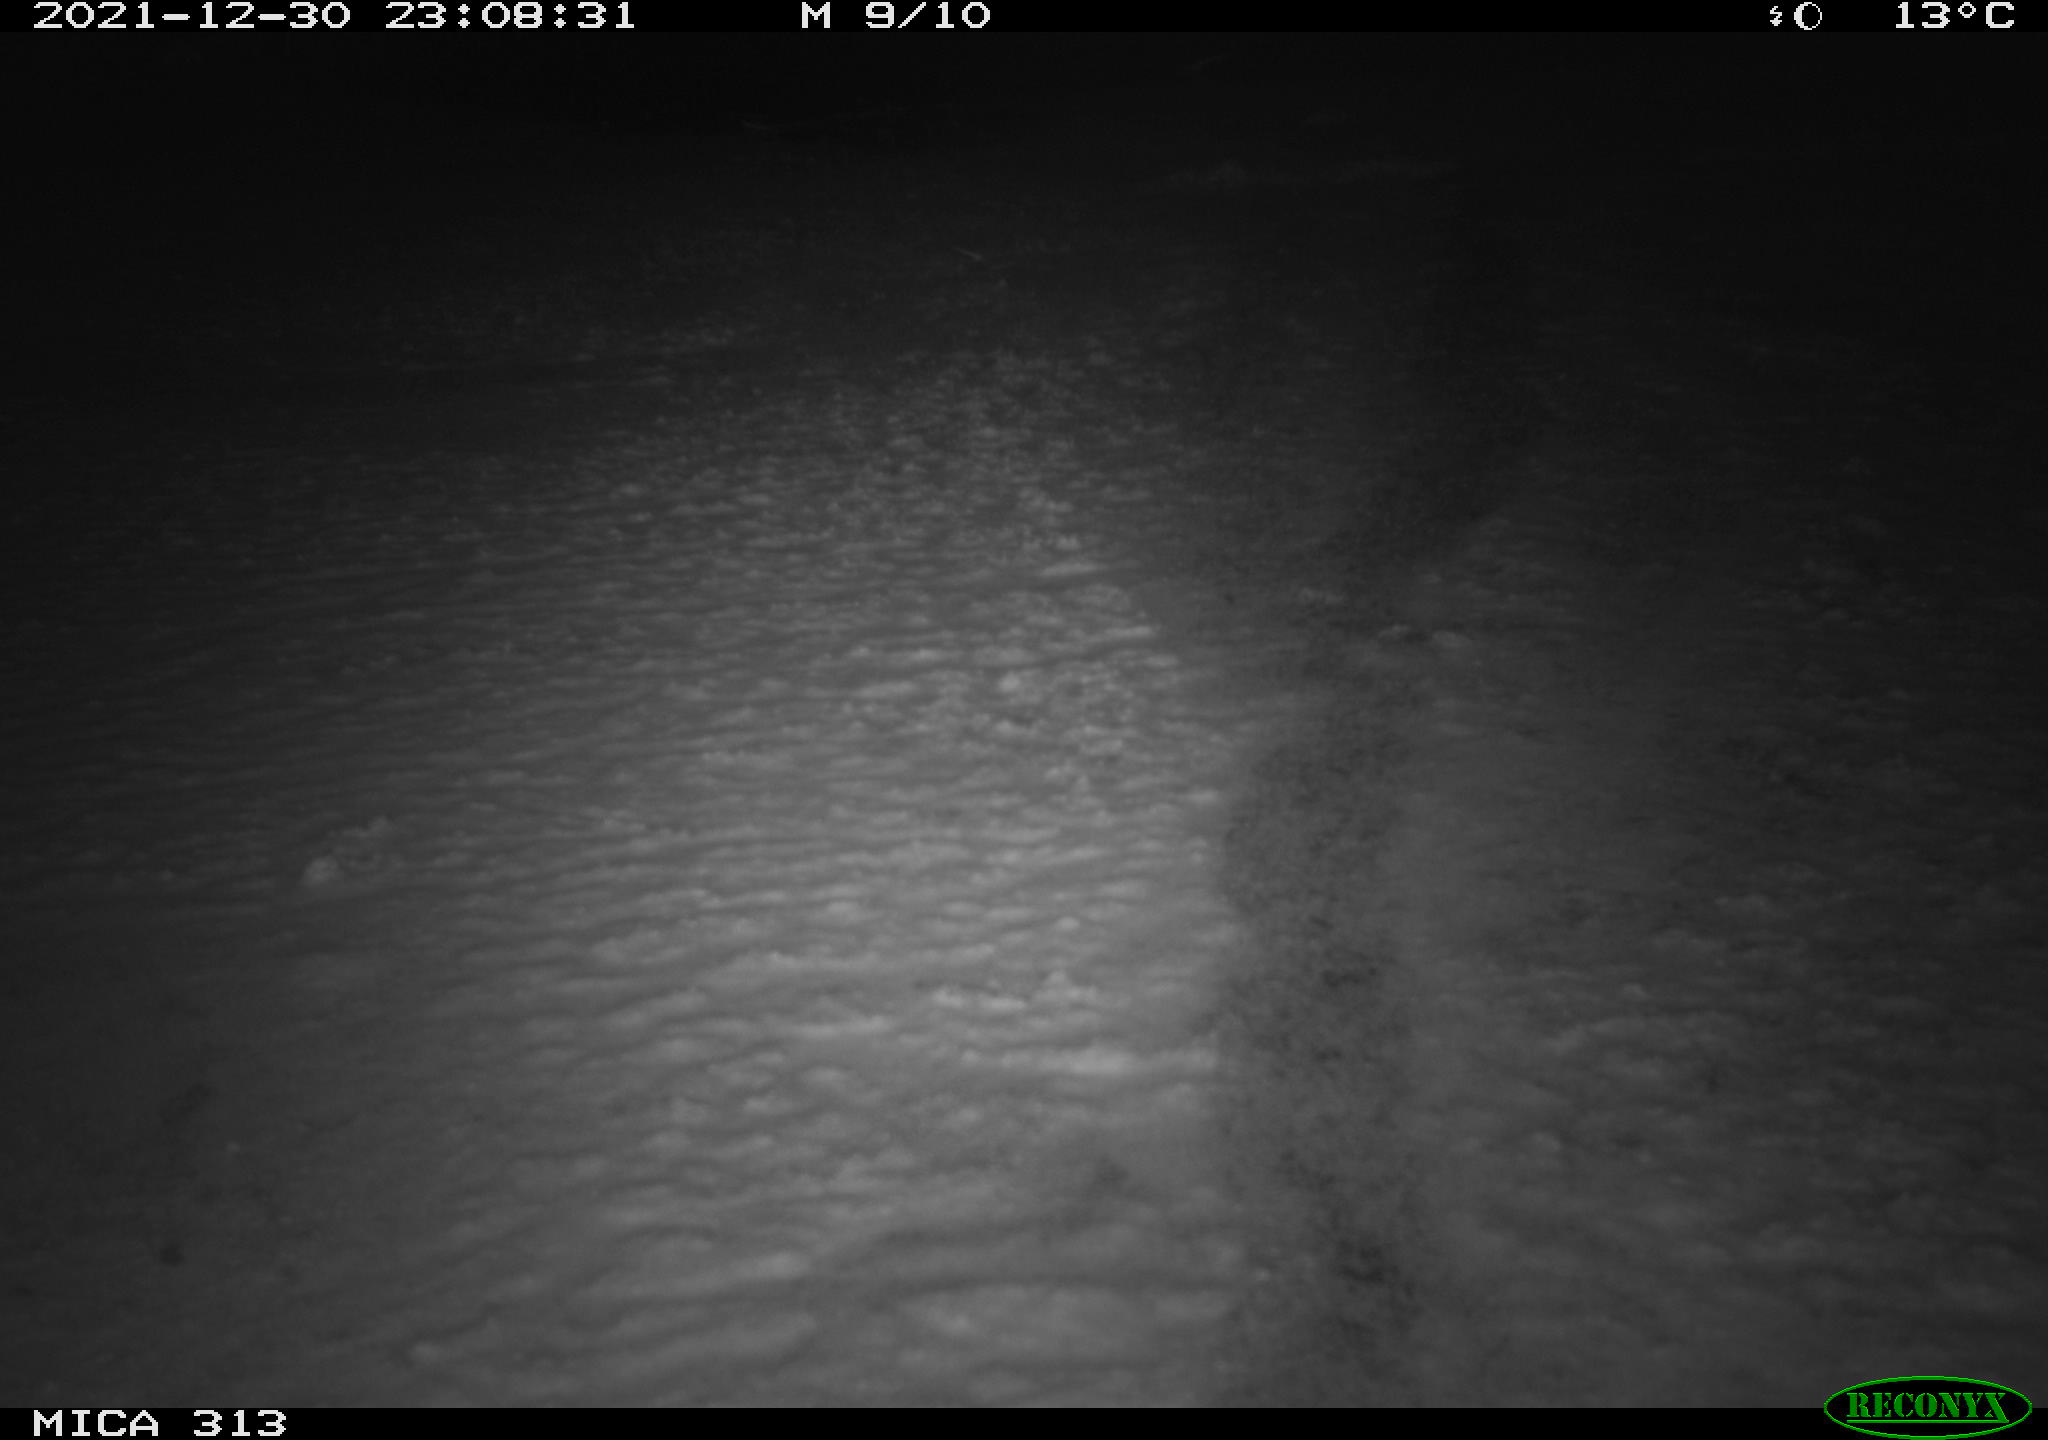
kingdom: Animalia
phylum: Chordata
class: Aves
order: Gruiformes
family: Rallidae
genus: Gallinula
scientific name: Gallinula chloropus
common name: Common moorhen
